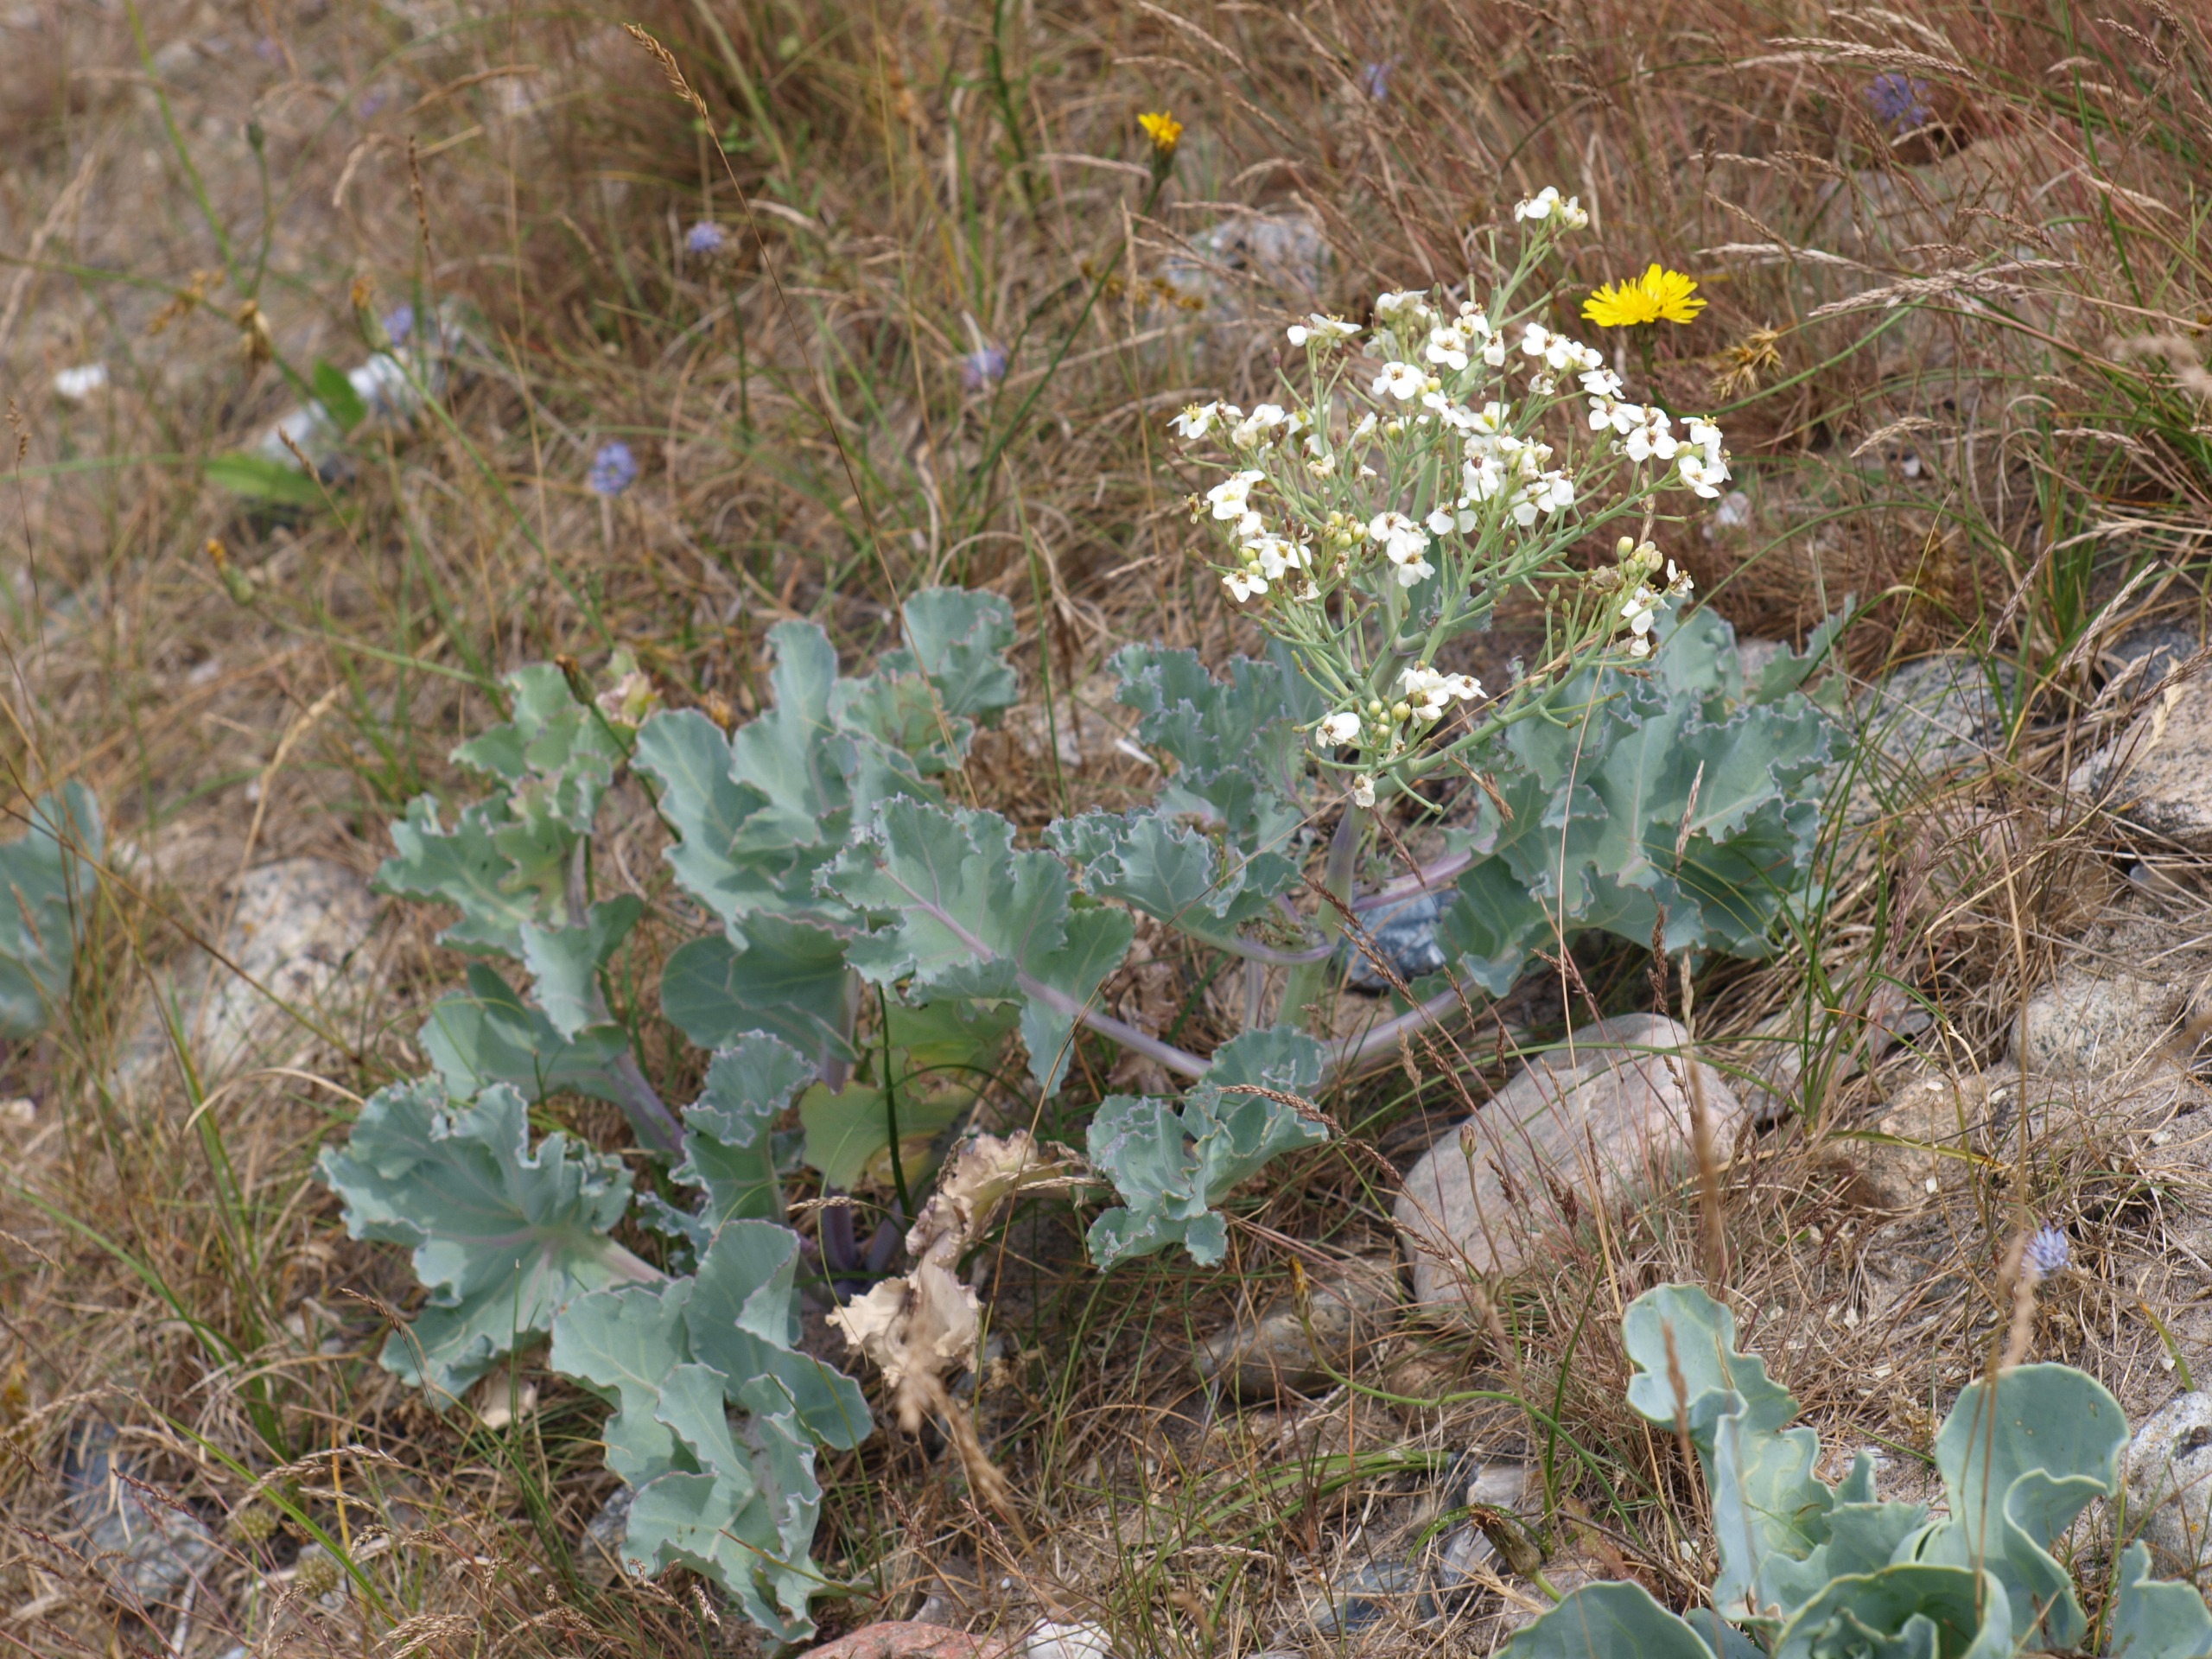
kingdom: Plantae
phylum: Tracheophyta
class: Magnoliopsida
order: Brassicales
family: Brassicaceae
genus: Crambe
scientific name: Crambe maritima
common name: Strandkål
